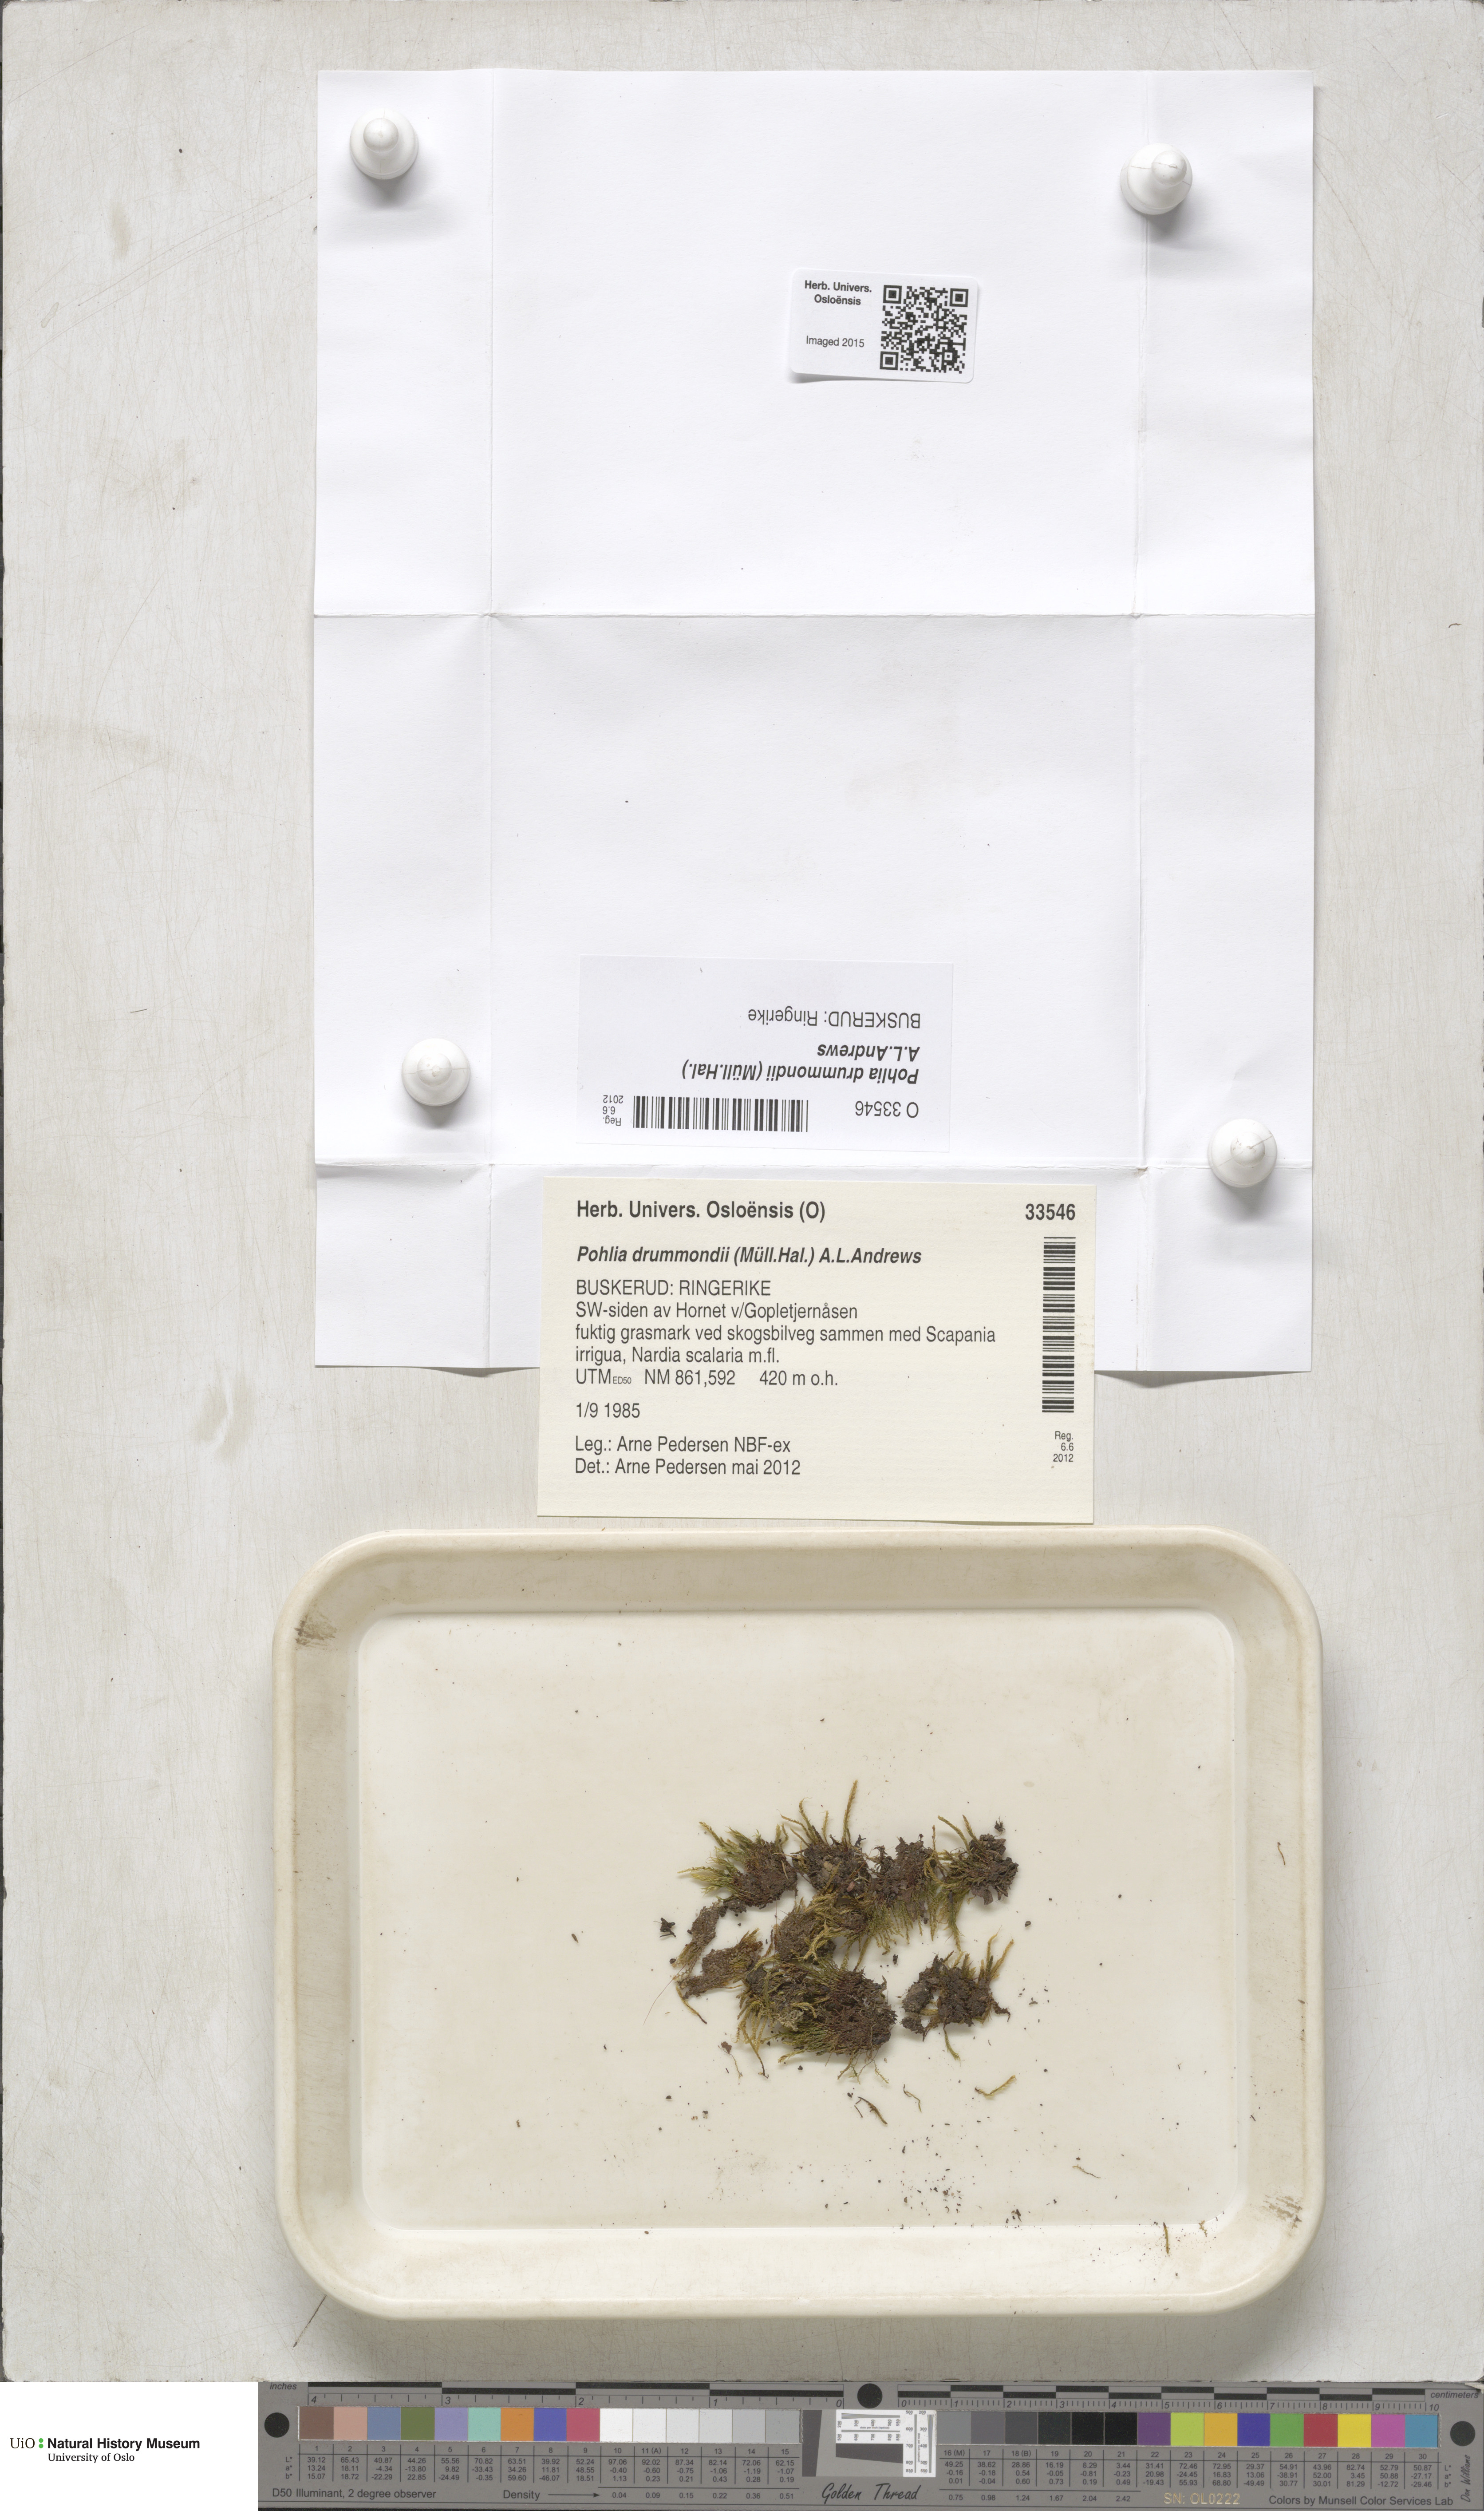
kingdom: Plantae
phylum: Bryophyta
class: Bryopsida
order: Bryales
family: Mniaceae
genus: Pohlia
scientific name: Pohlia drummondii
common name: Drummond's nodding moss
